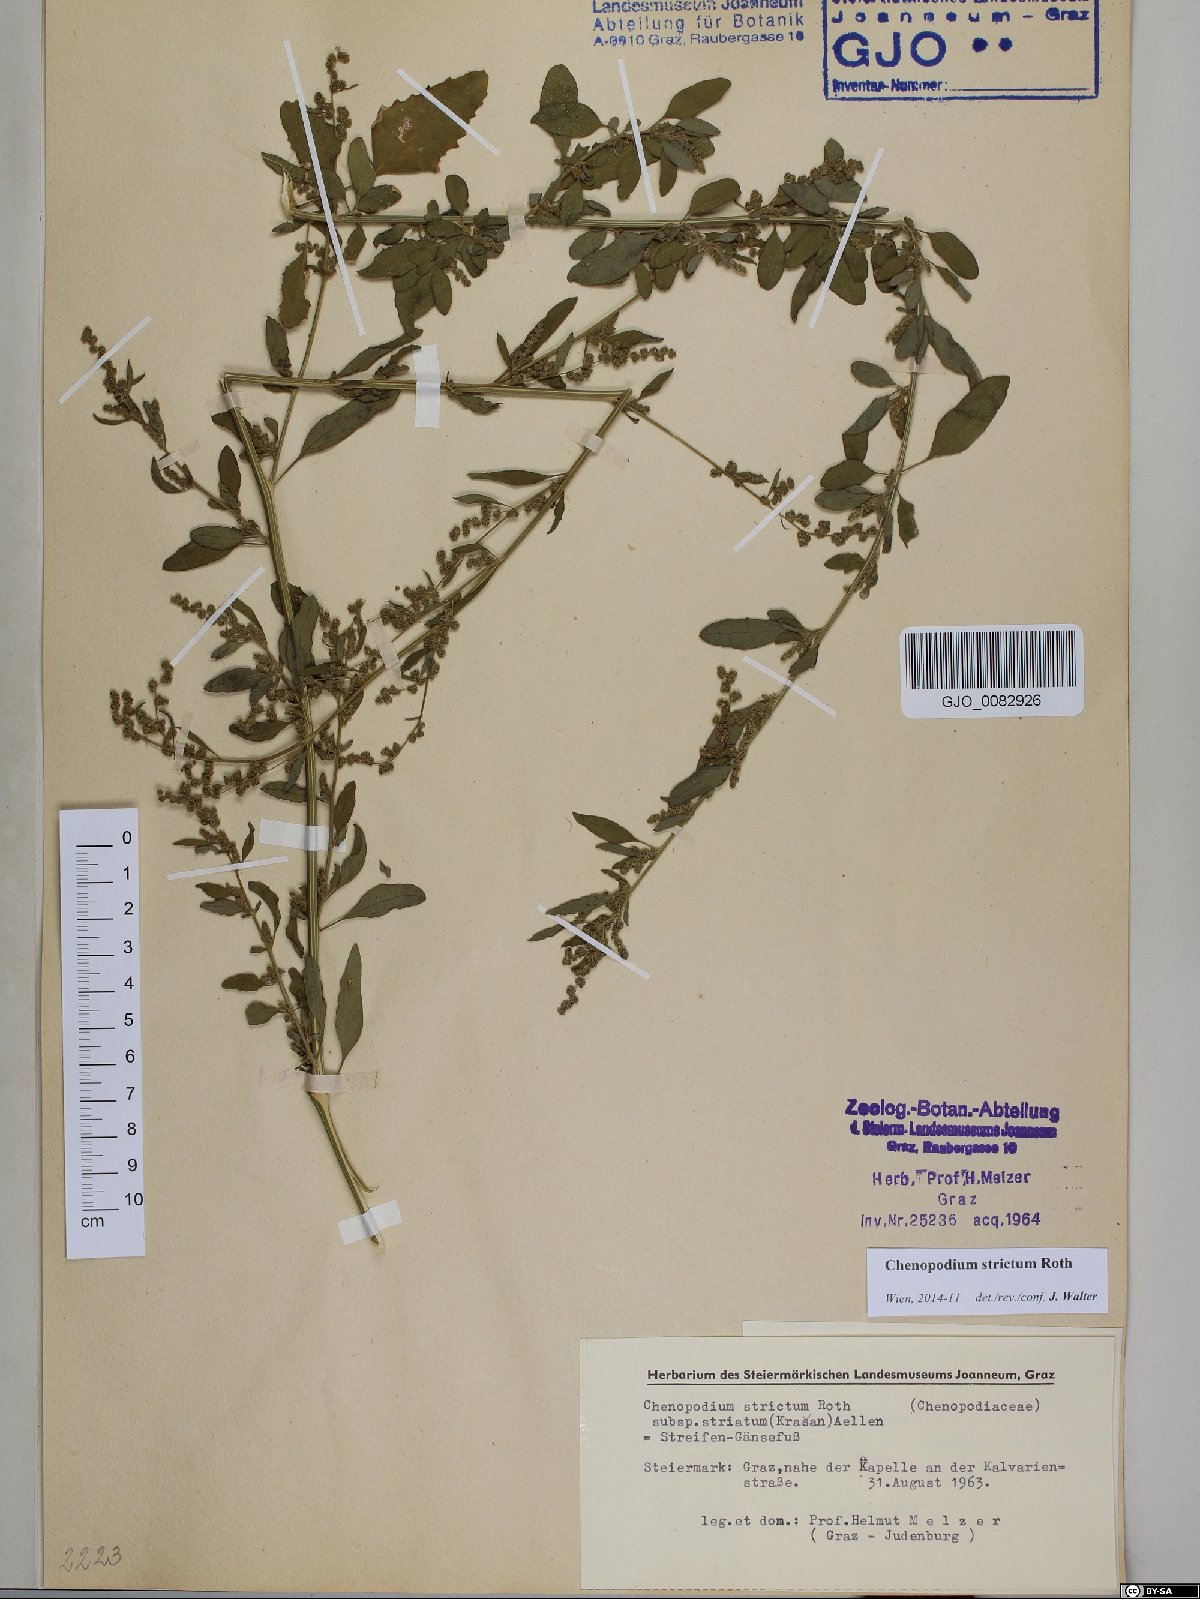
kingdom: Plantae
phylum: Tracheophyta
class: Magnoliopsida
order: Caryophyllales
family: Amaranthaceae
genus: Chenopodium
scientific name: Chenopodium album
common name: Fat-hen
